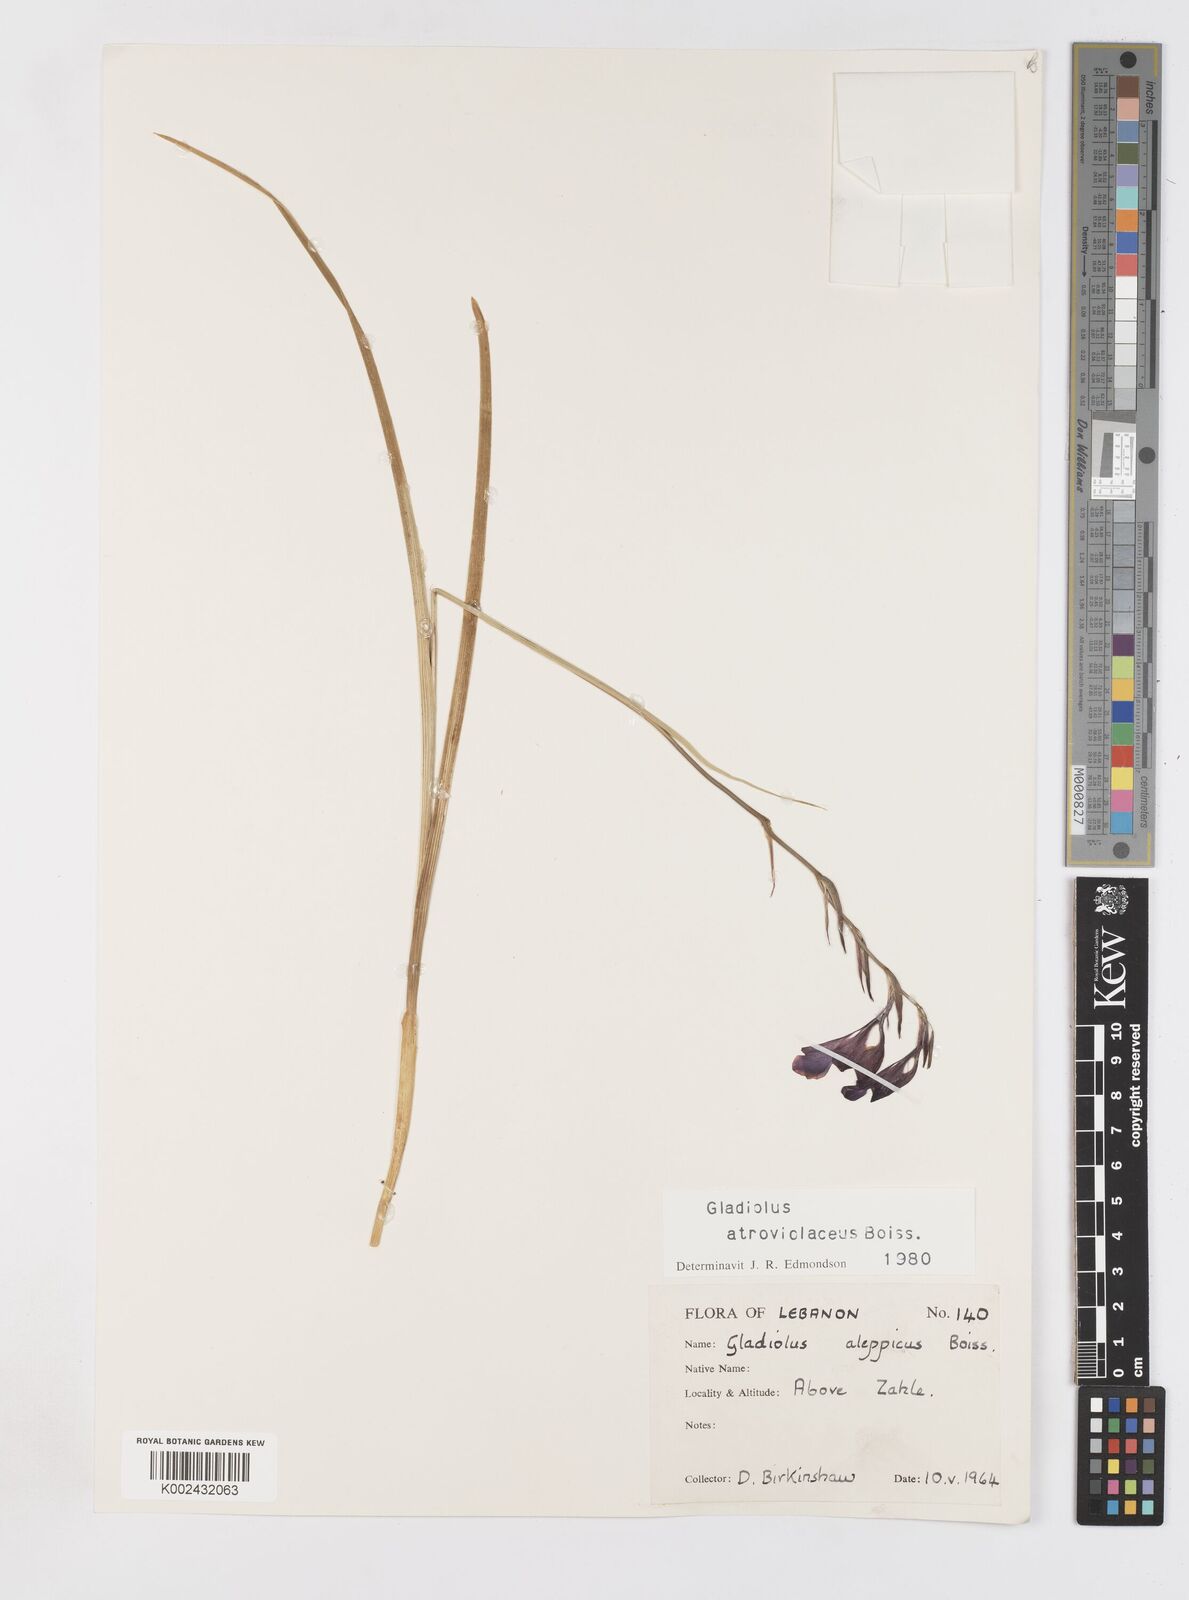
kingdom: Plantae
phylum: Tracheophyta
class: Liliopsida
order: Asparagales
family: Iridaceae
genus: Gladiolus
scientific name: Gladiolus atroviolaceus
